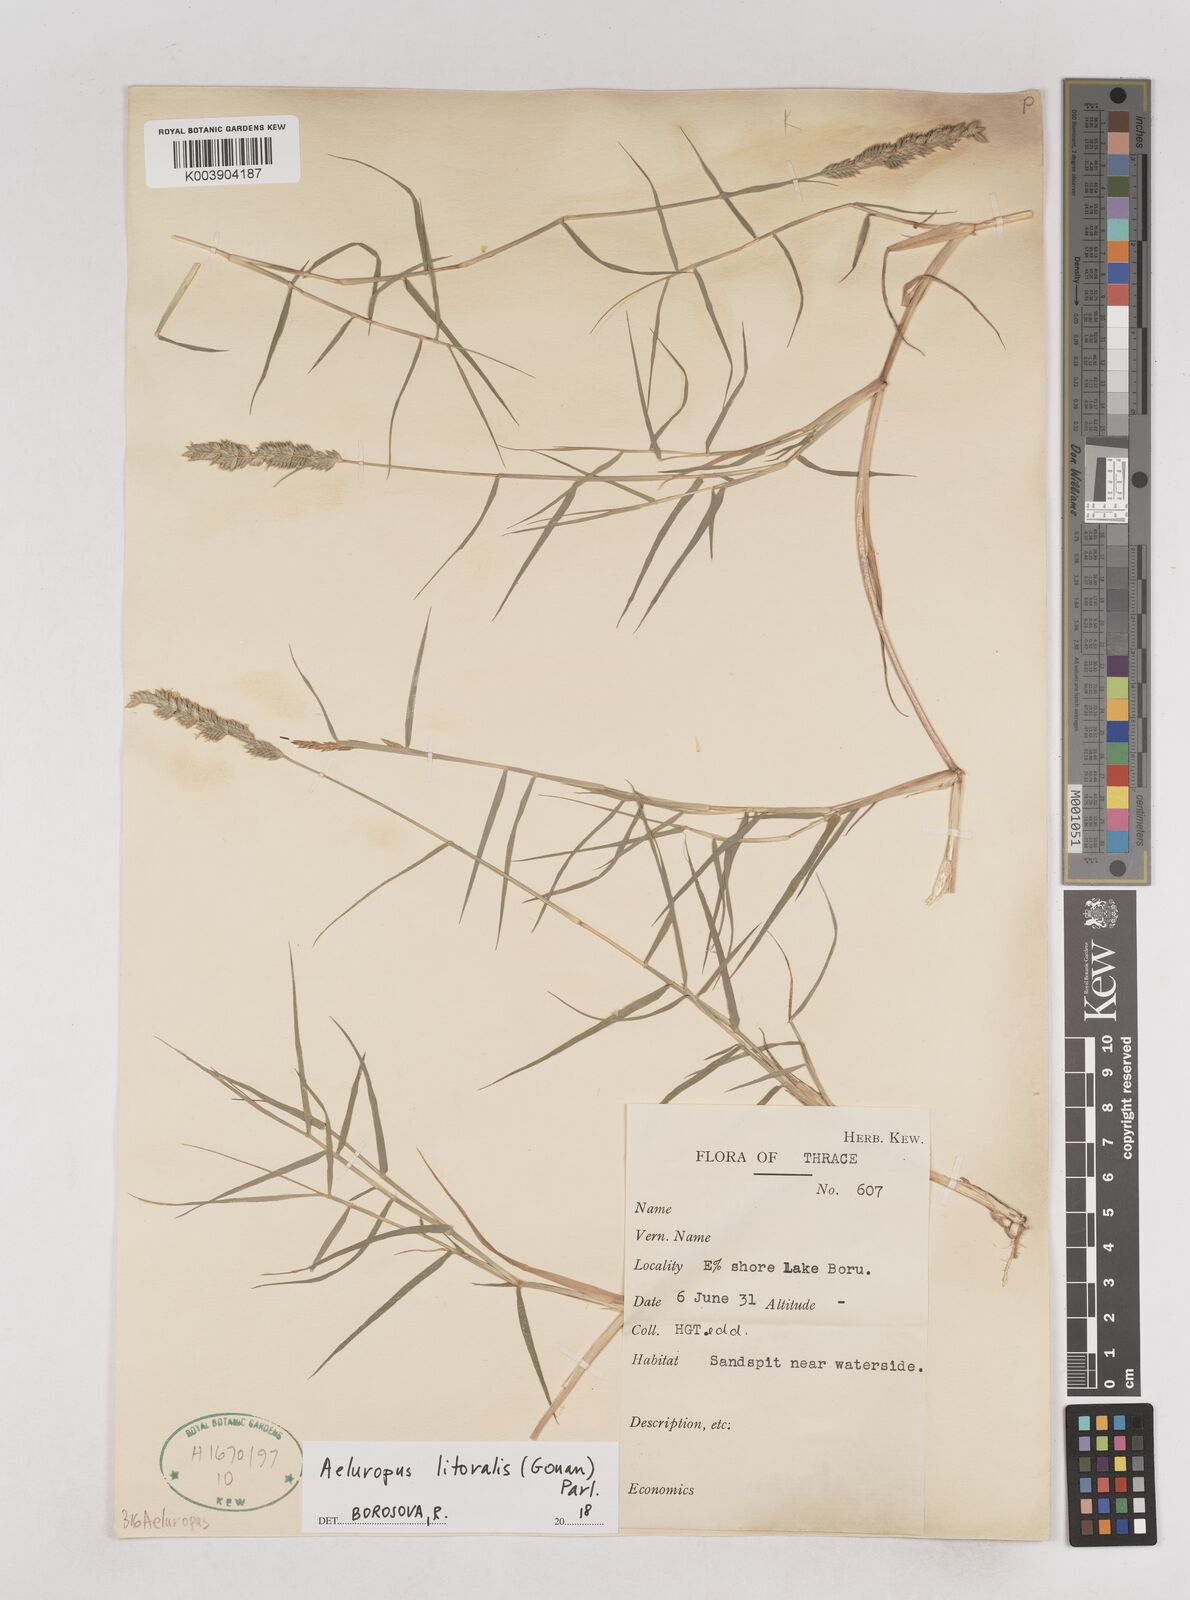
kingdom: Plantae
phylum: Tracheophyta
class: Liliopsida
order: Poales
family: Poaceae
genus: Aeluropus
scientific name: Aeluropus littoralis
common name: Indian walnut
